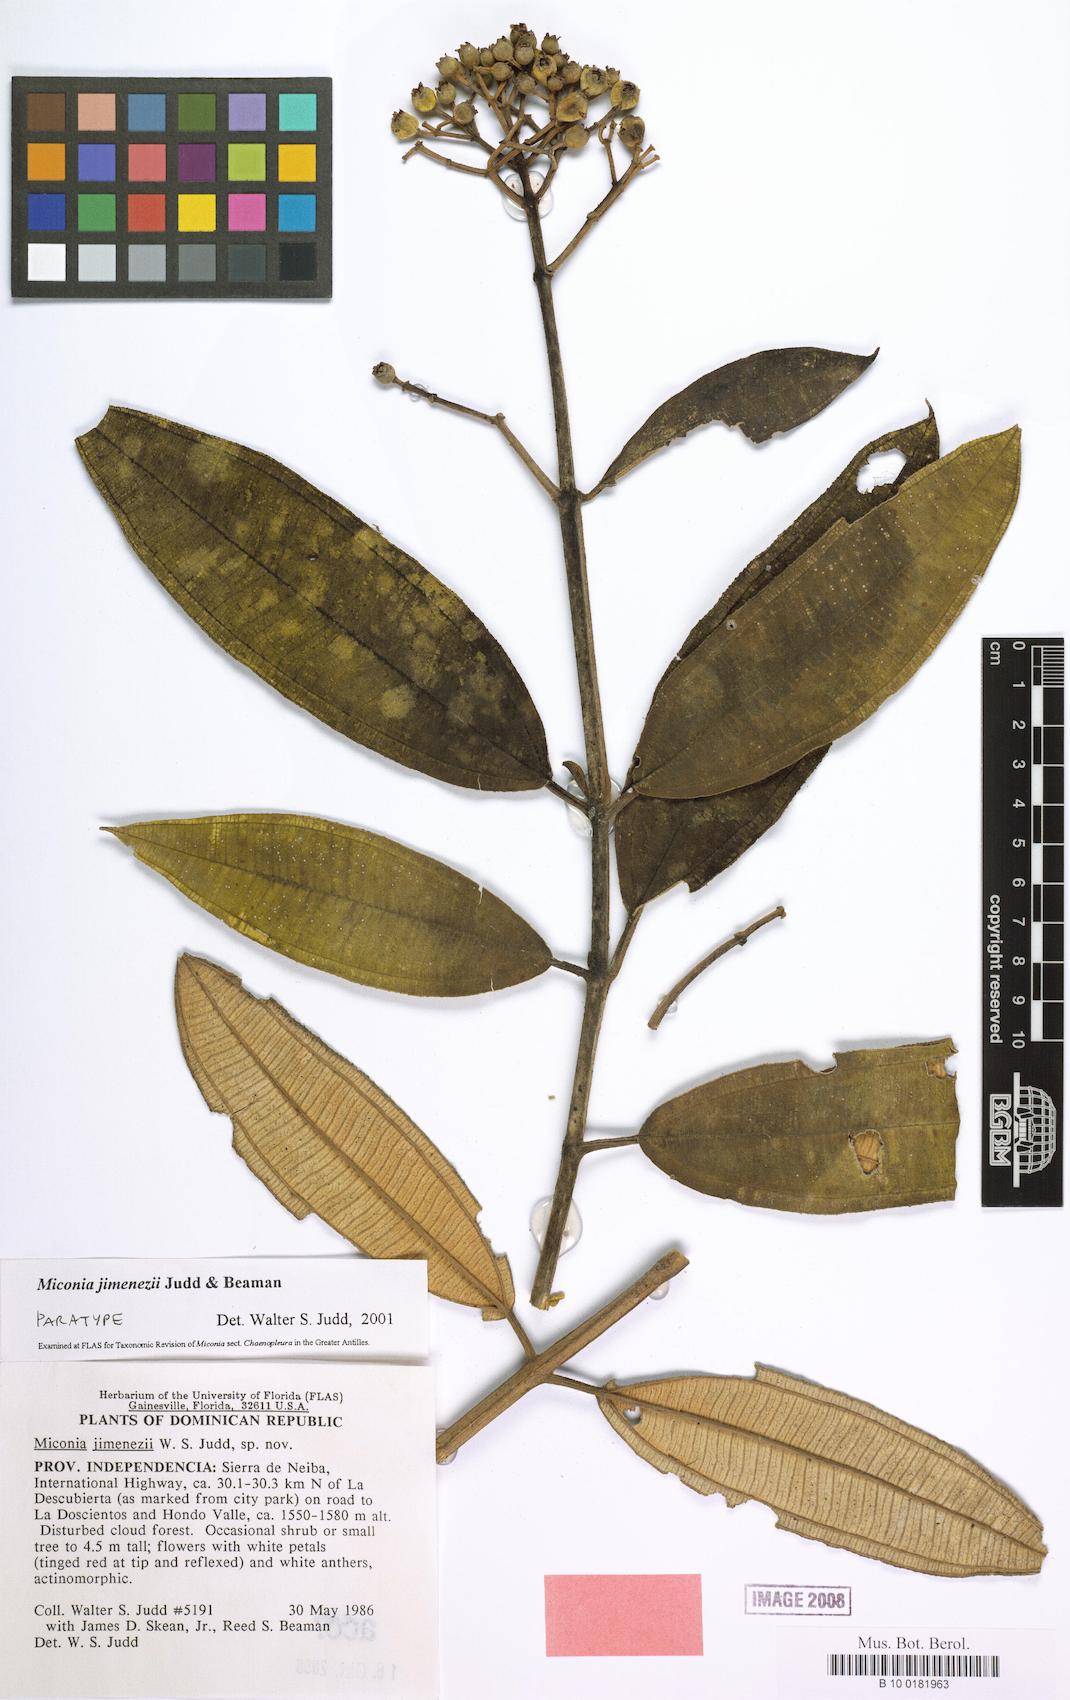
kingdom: Plantae
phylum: Tracheophyta
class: Magnoliopsida
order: Myrtales
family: Melastomataceae
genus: Miconia
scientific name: Miconia jimenezii
